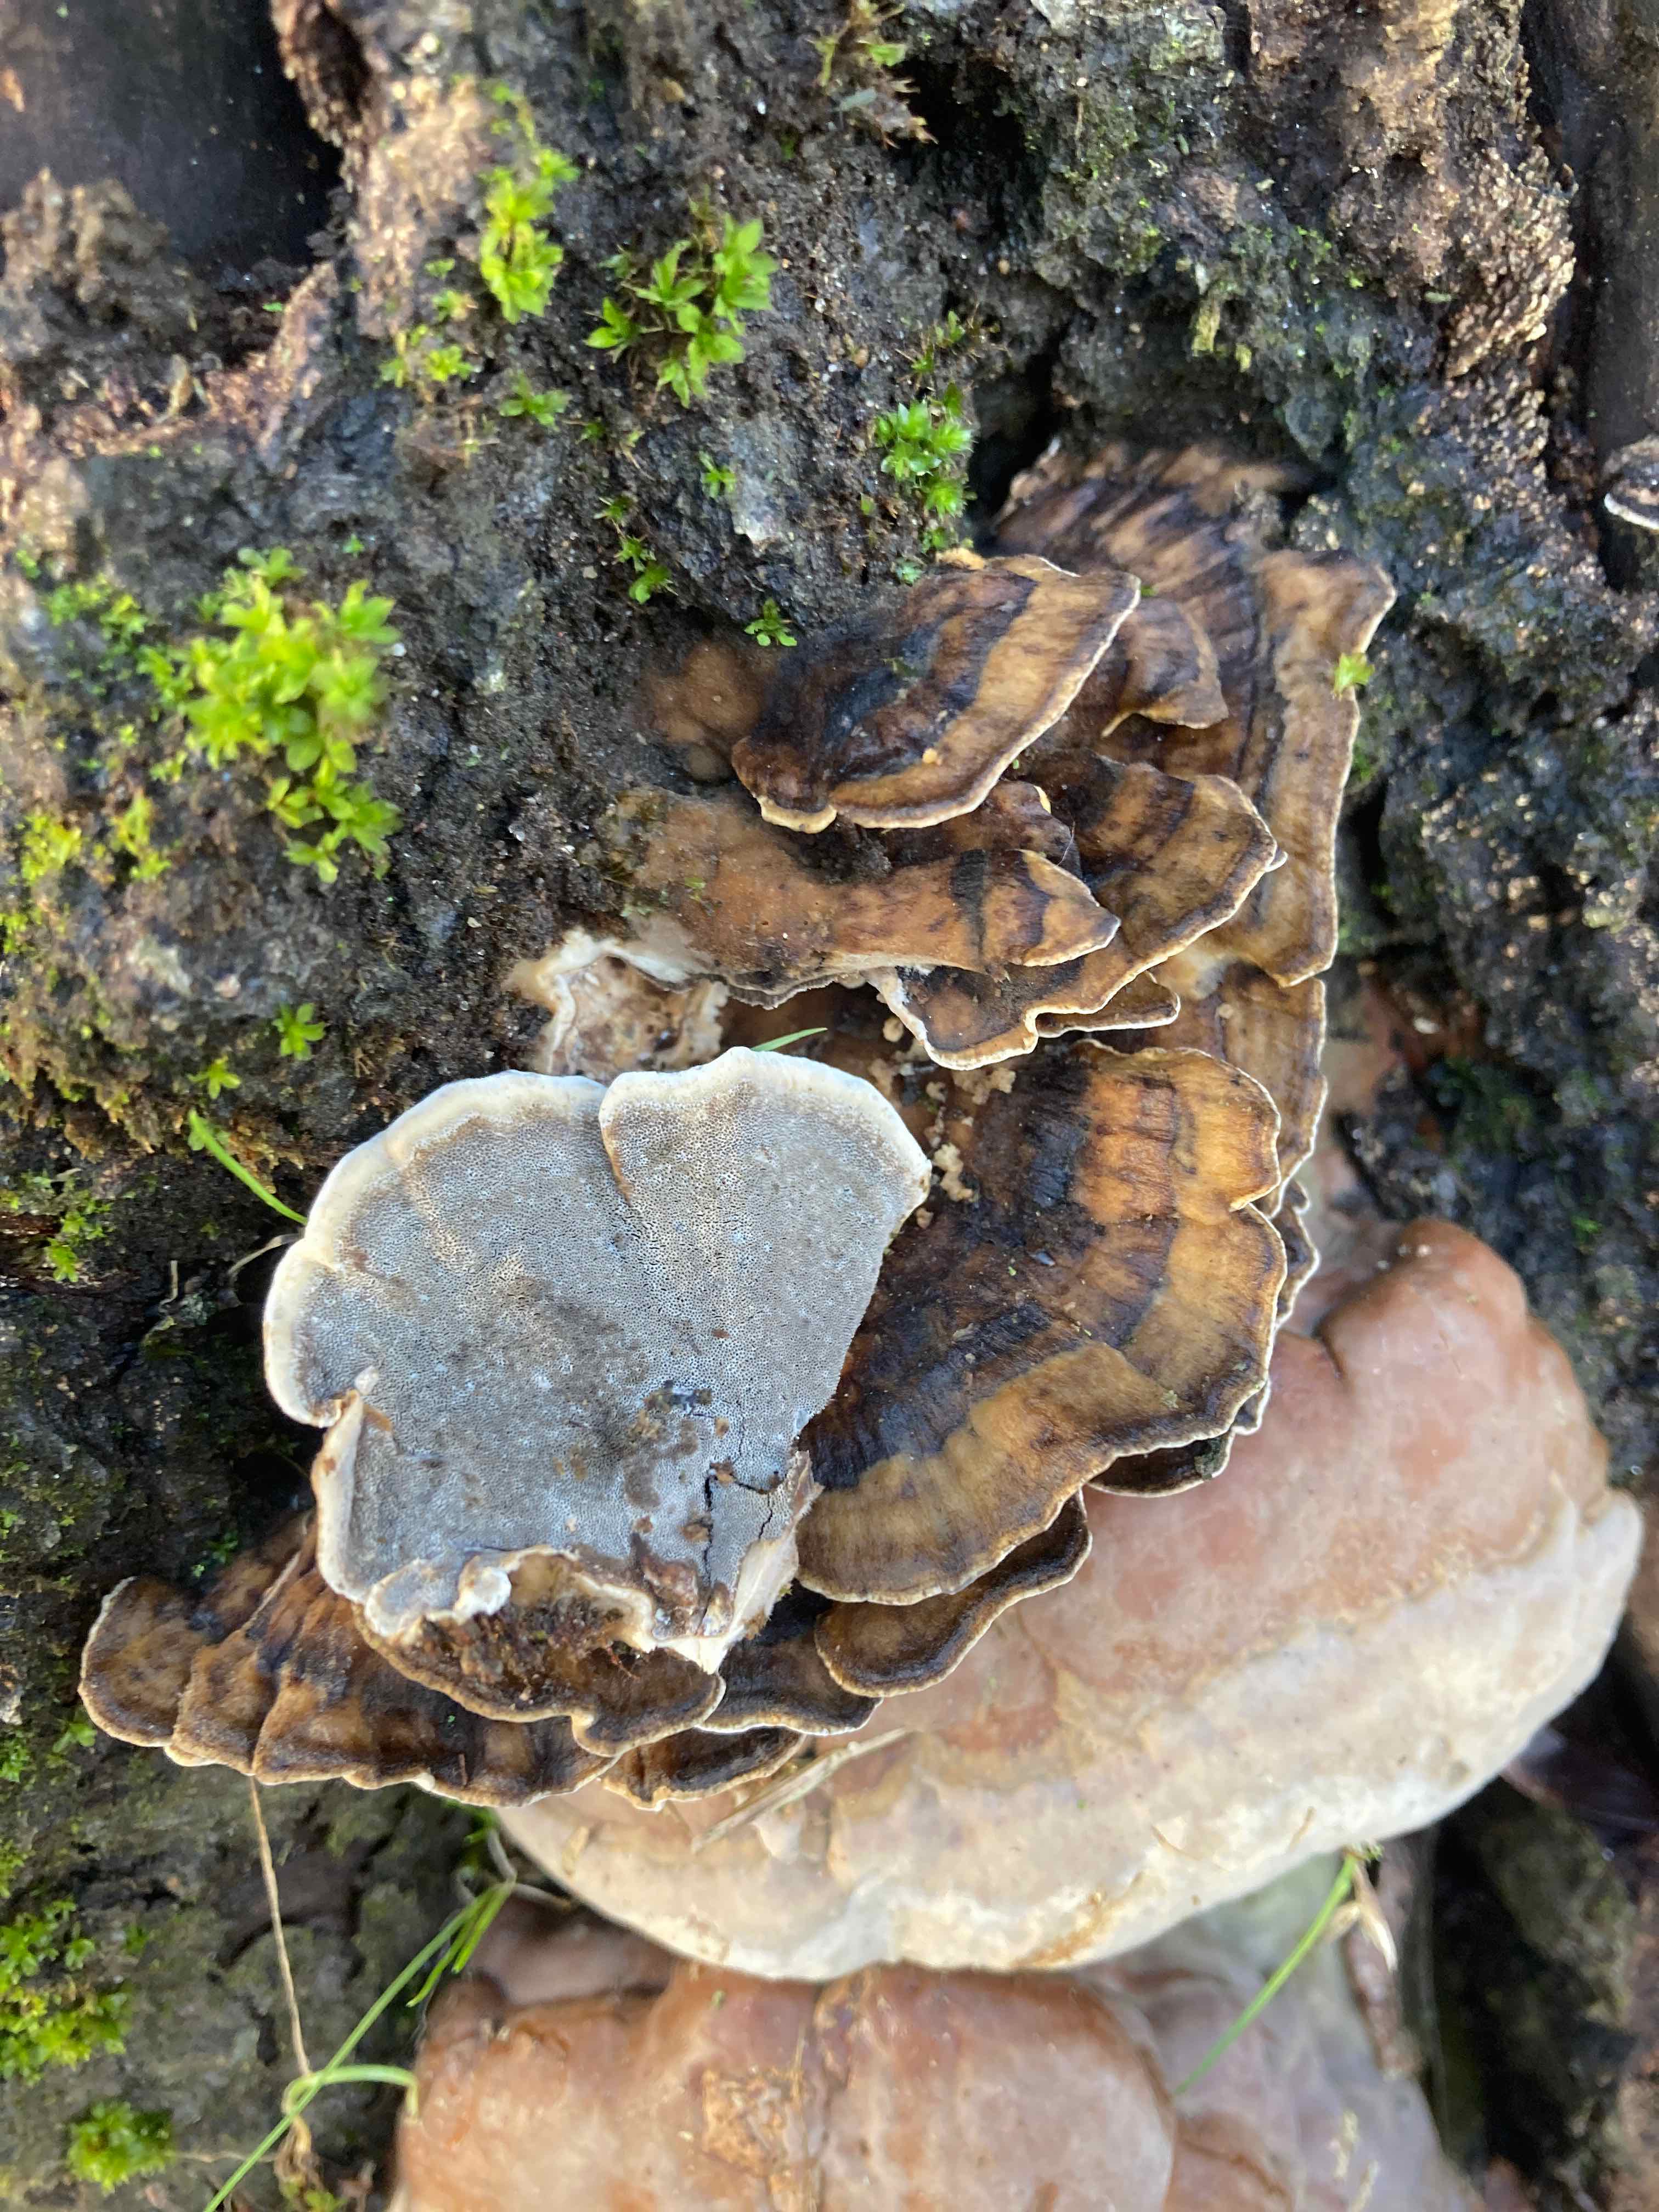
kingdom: Fungi
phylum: Basidiomycota
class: Agaricomycetes
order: Polyporales
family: Phanerochaetaceae
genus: Bjerkandera
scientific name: Bjerkandera adusta
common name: sveden sodporesvamp
